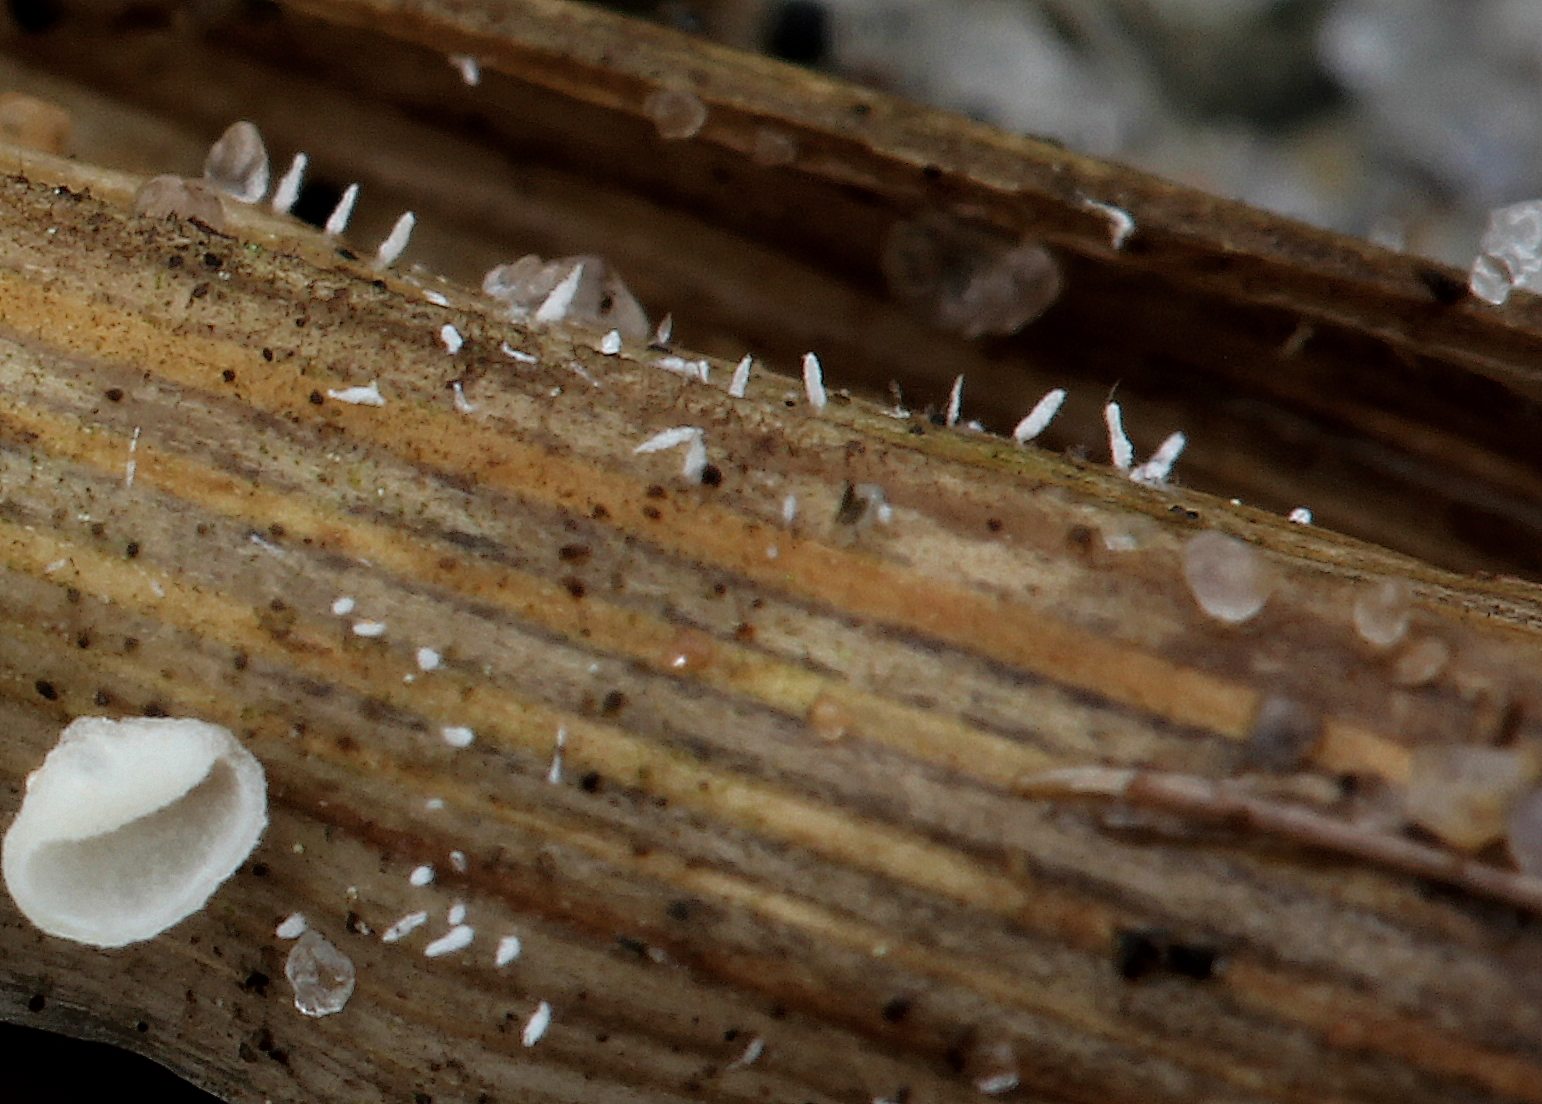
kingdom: Fungi
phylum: Basidiomycota
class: Agaricomycetes
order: Gomphales
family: Gomphaceae
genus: Ceratellopsis
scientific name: Ceratellopsis
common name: sylkølle
